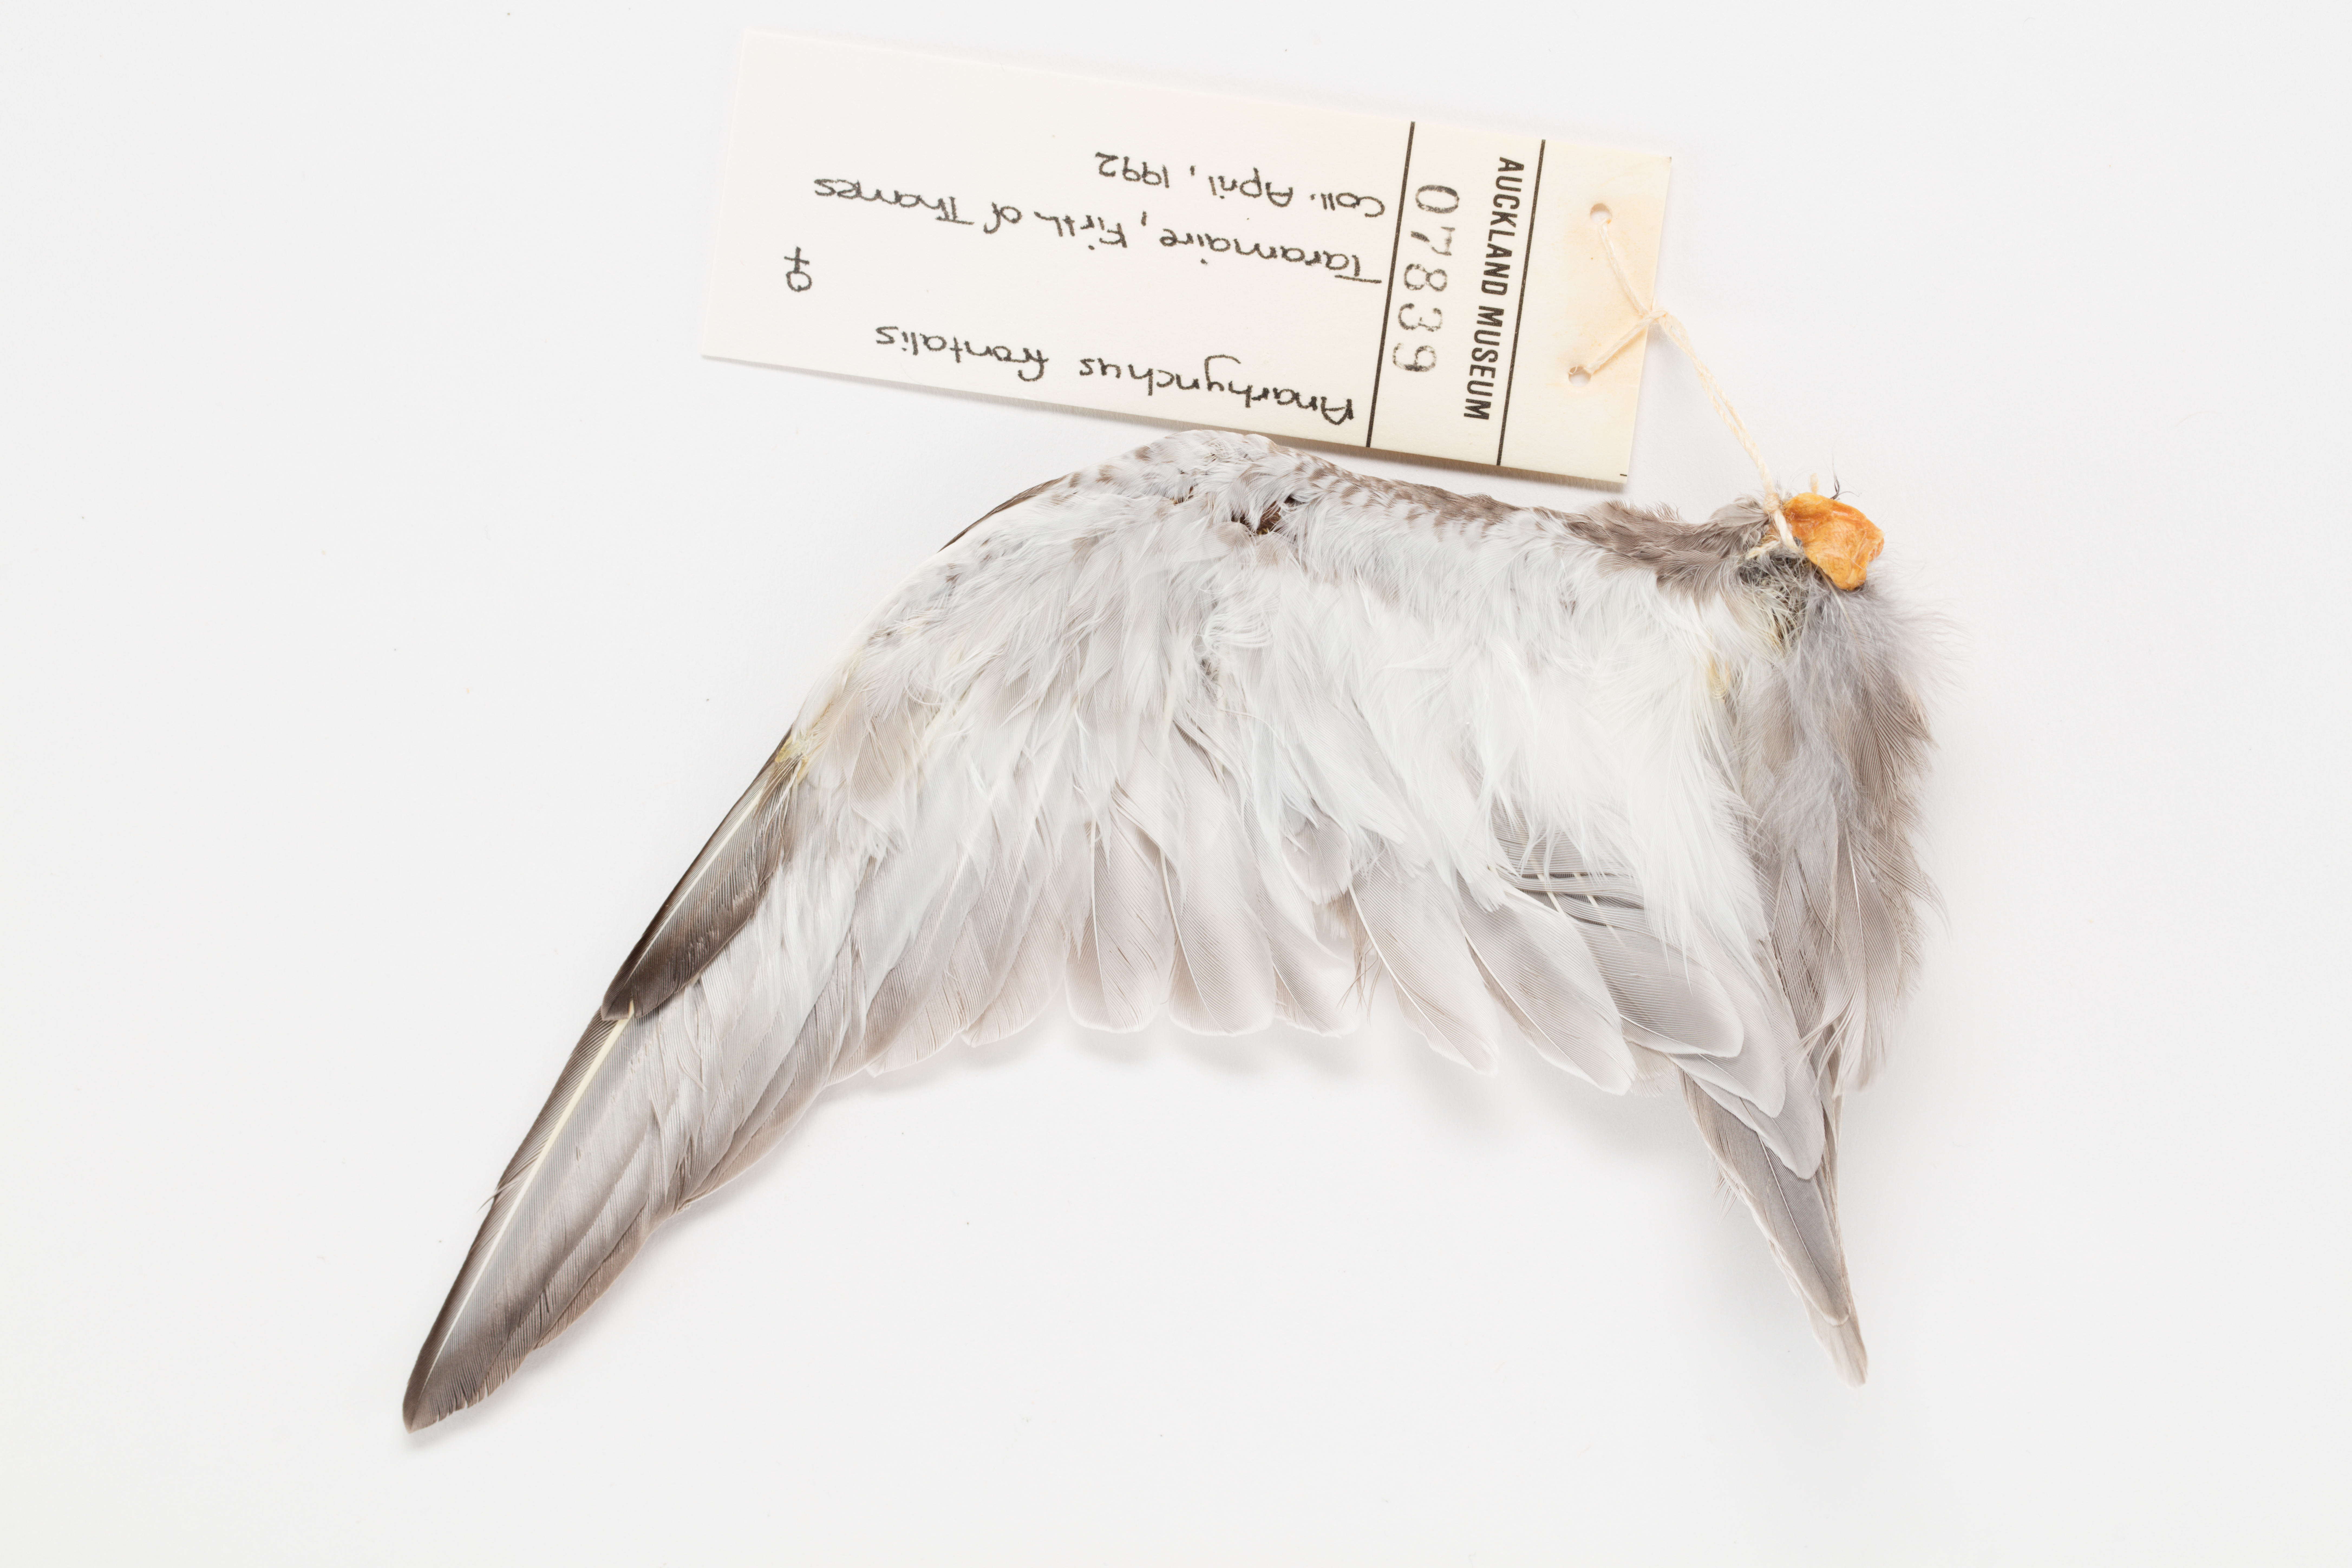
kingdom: Animalia
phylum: Chordata
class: Aves
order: Charadriiformes
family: Charadriidae
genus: Charadrius
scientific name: Charadrius frontalis
